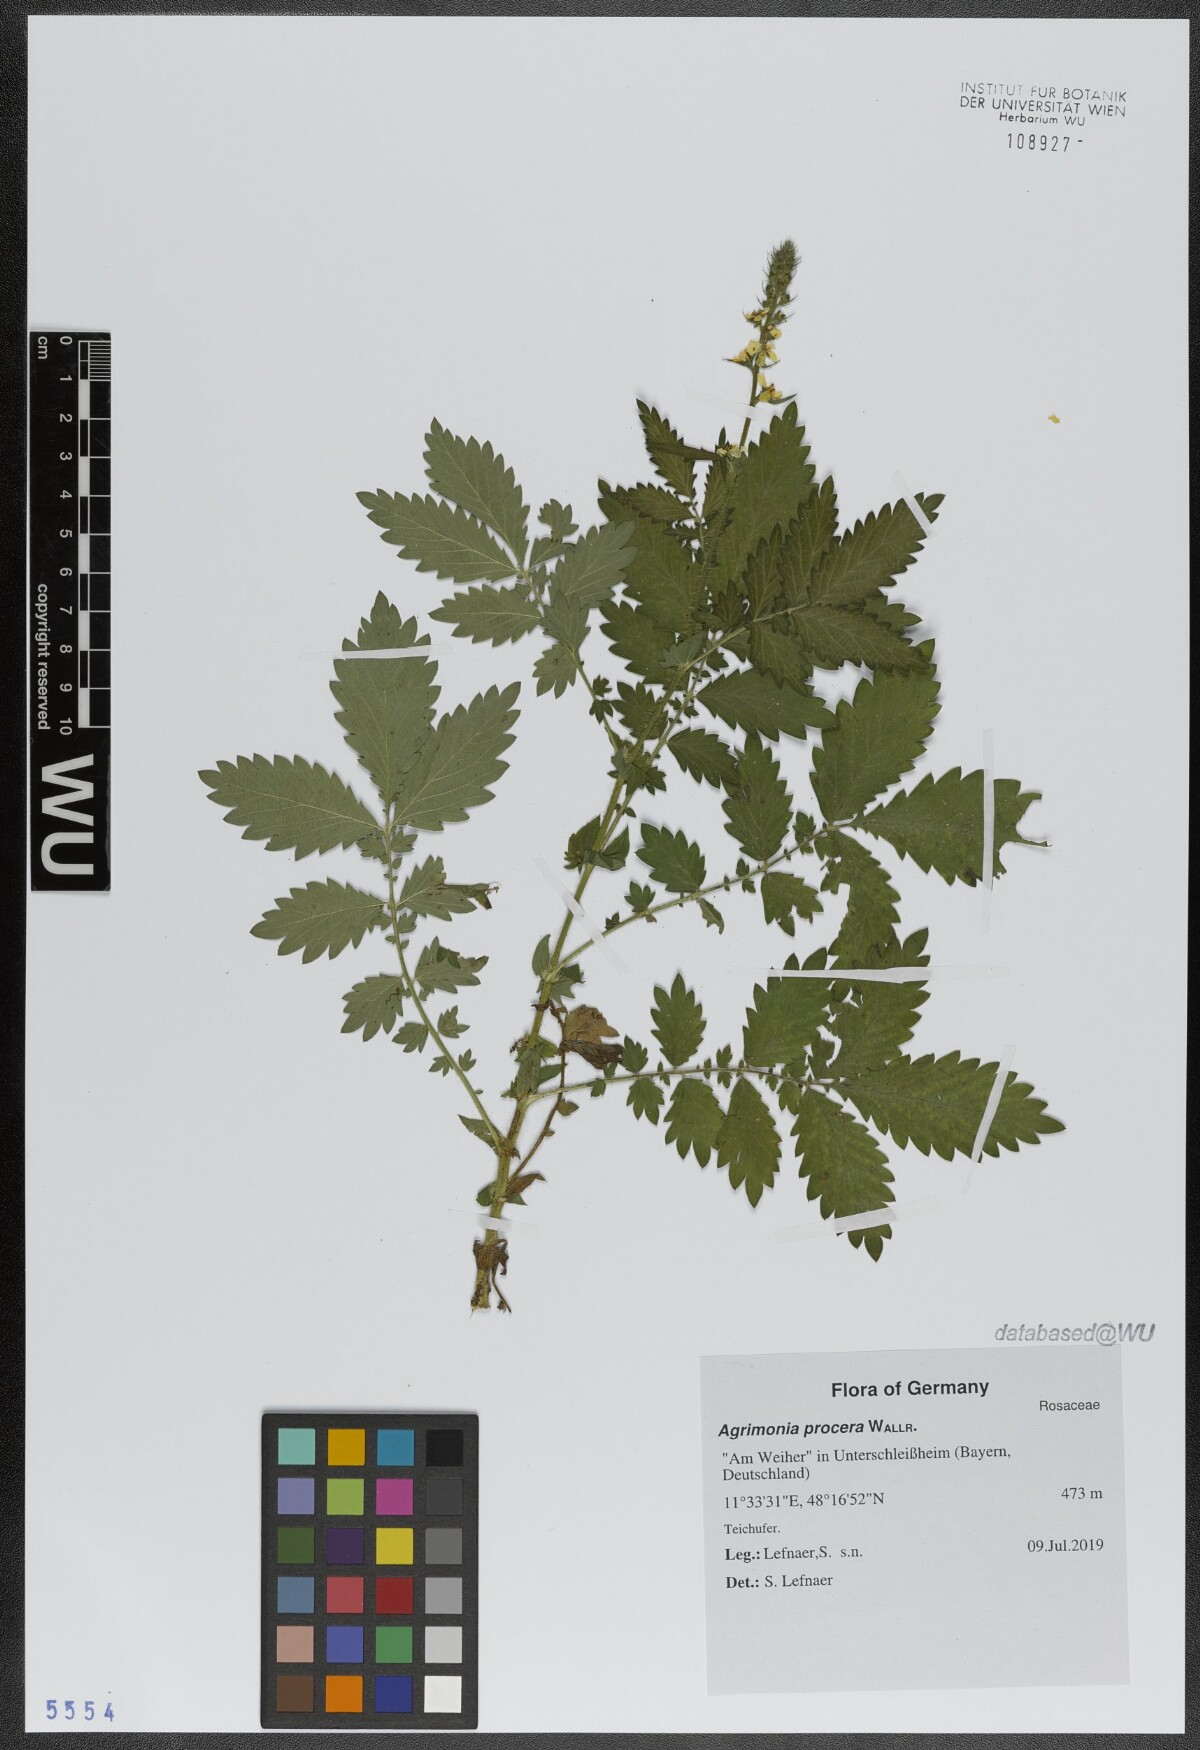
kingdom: Plantae
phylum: Tracheophyta
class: Magnoliopsida
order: Rosales
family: Rosaceae
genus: Agrimonia
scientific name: Agrimonia procera
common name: Fragrant agrimony
